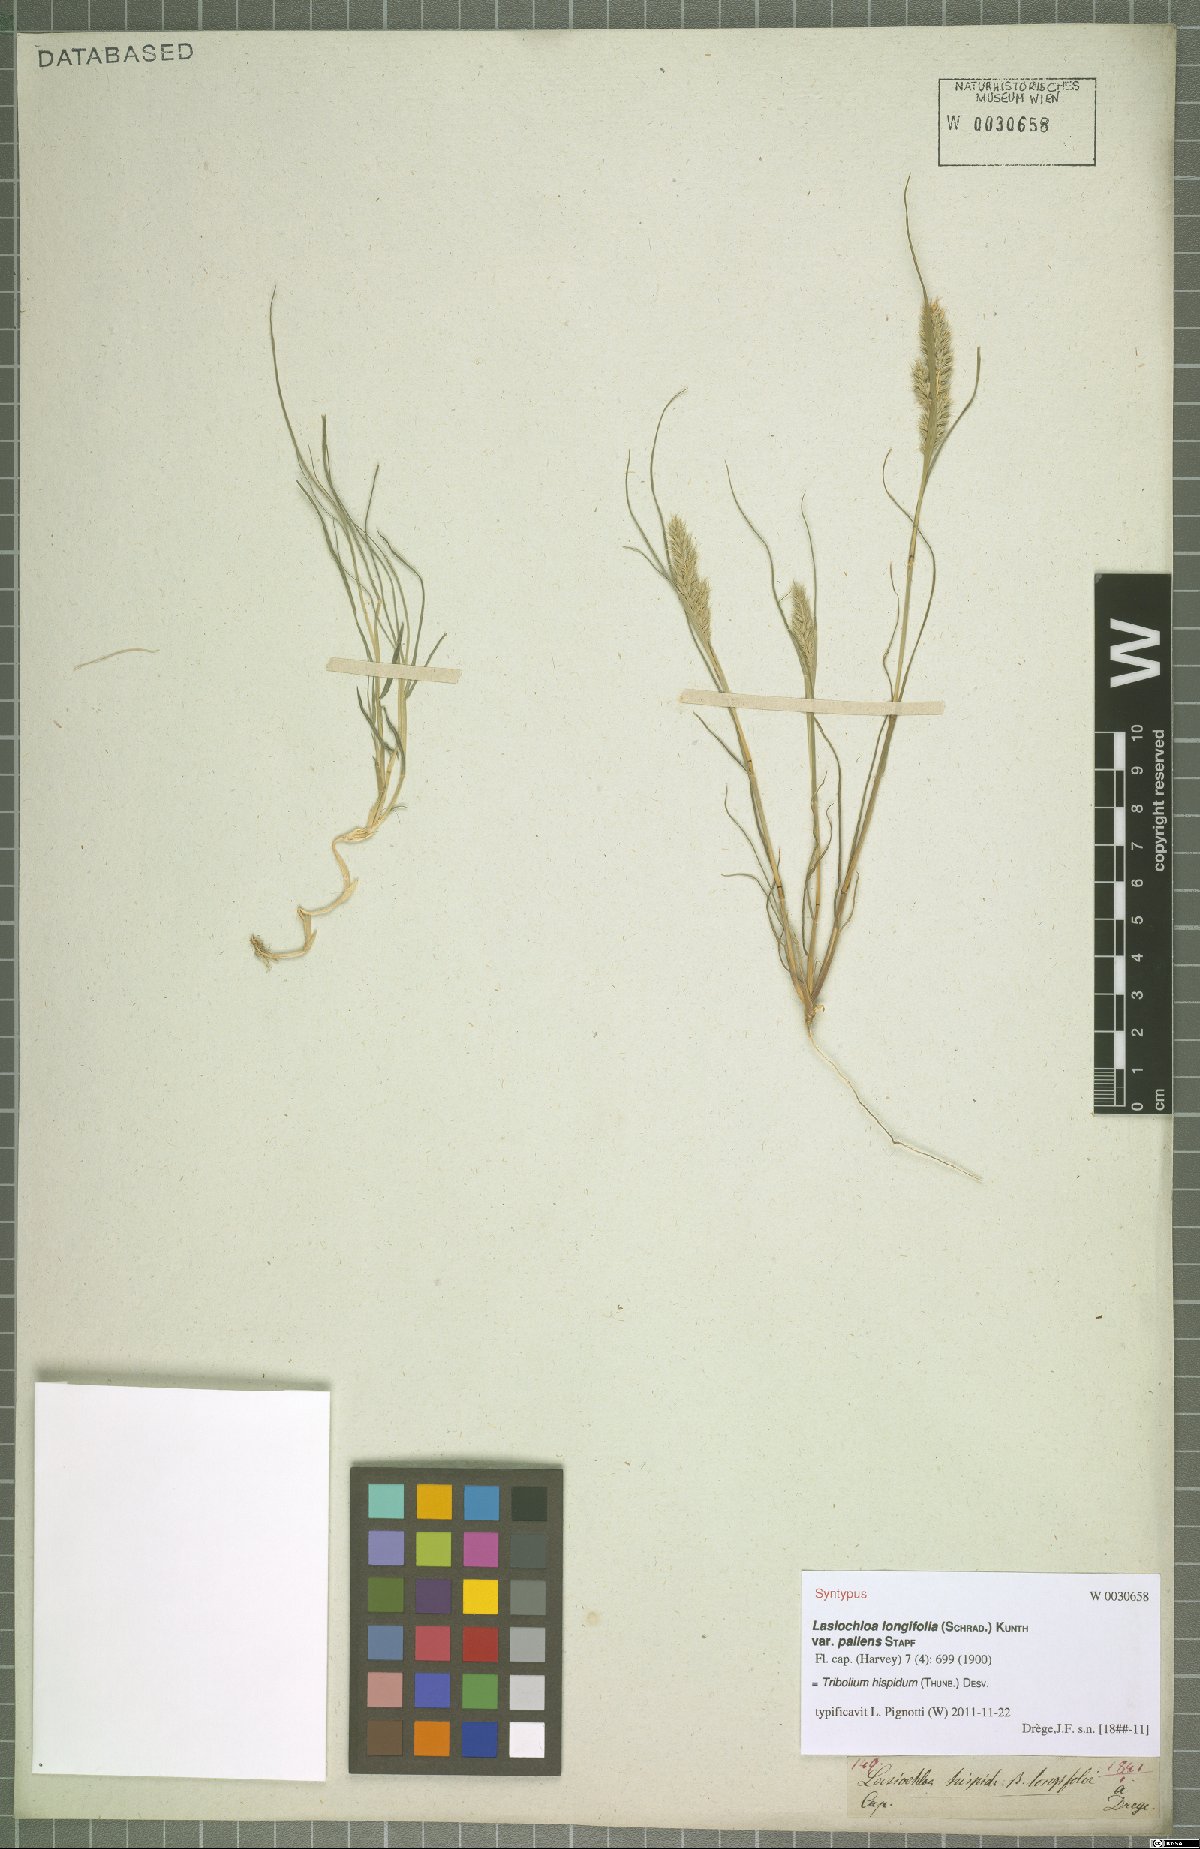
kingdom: Plantae
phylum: Tracheophyta
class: Liliopsida
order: Poales
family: Poaceae
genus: Tribolium
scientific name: Tribolium hispidum
